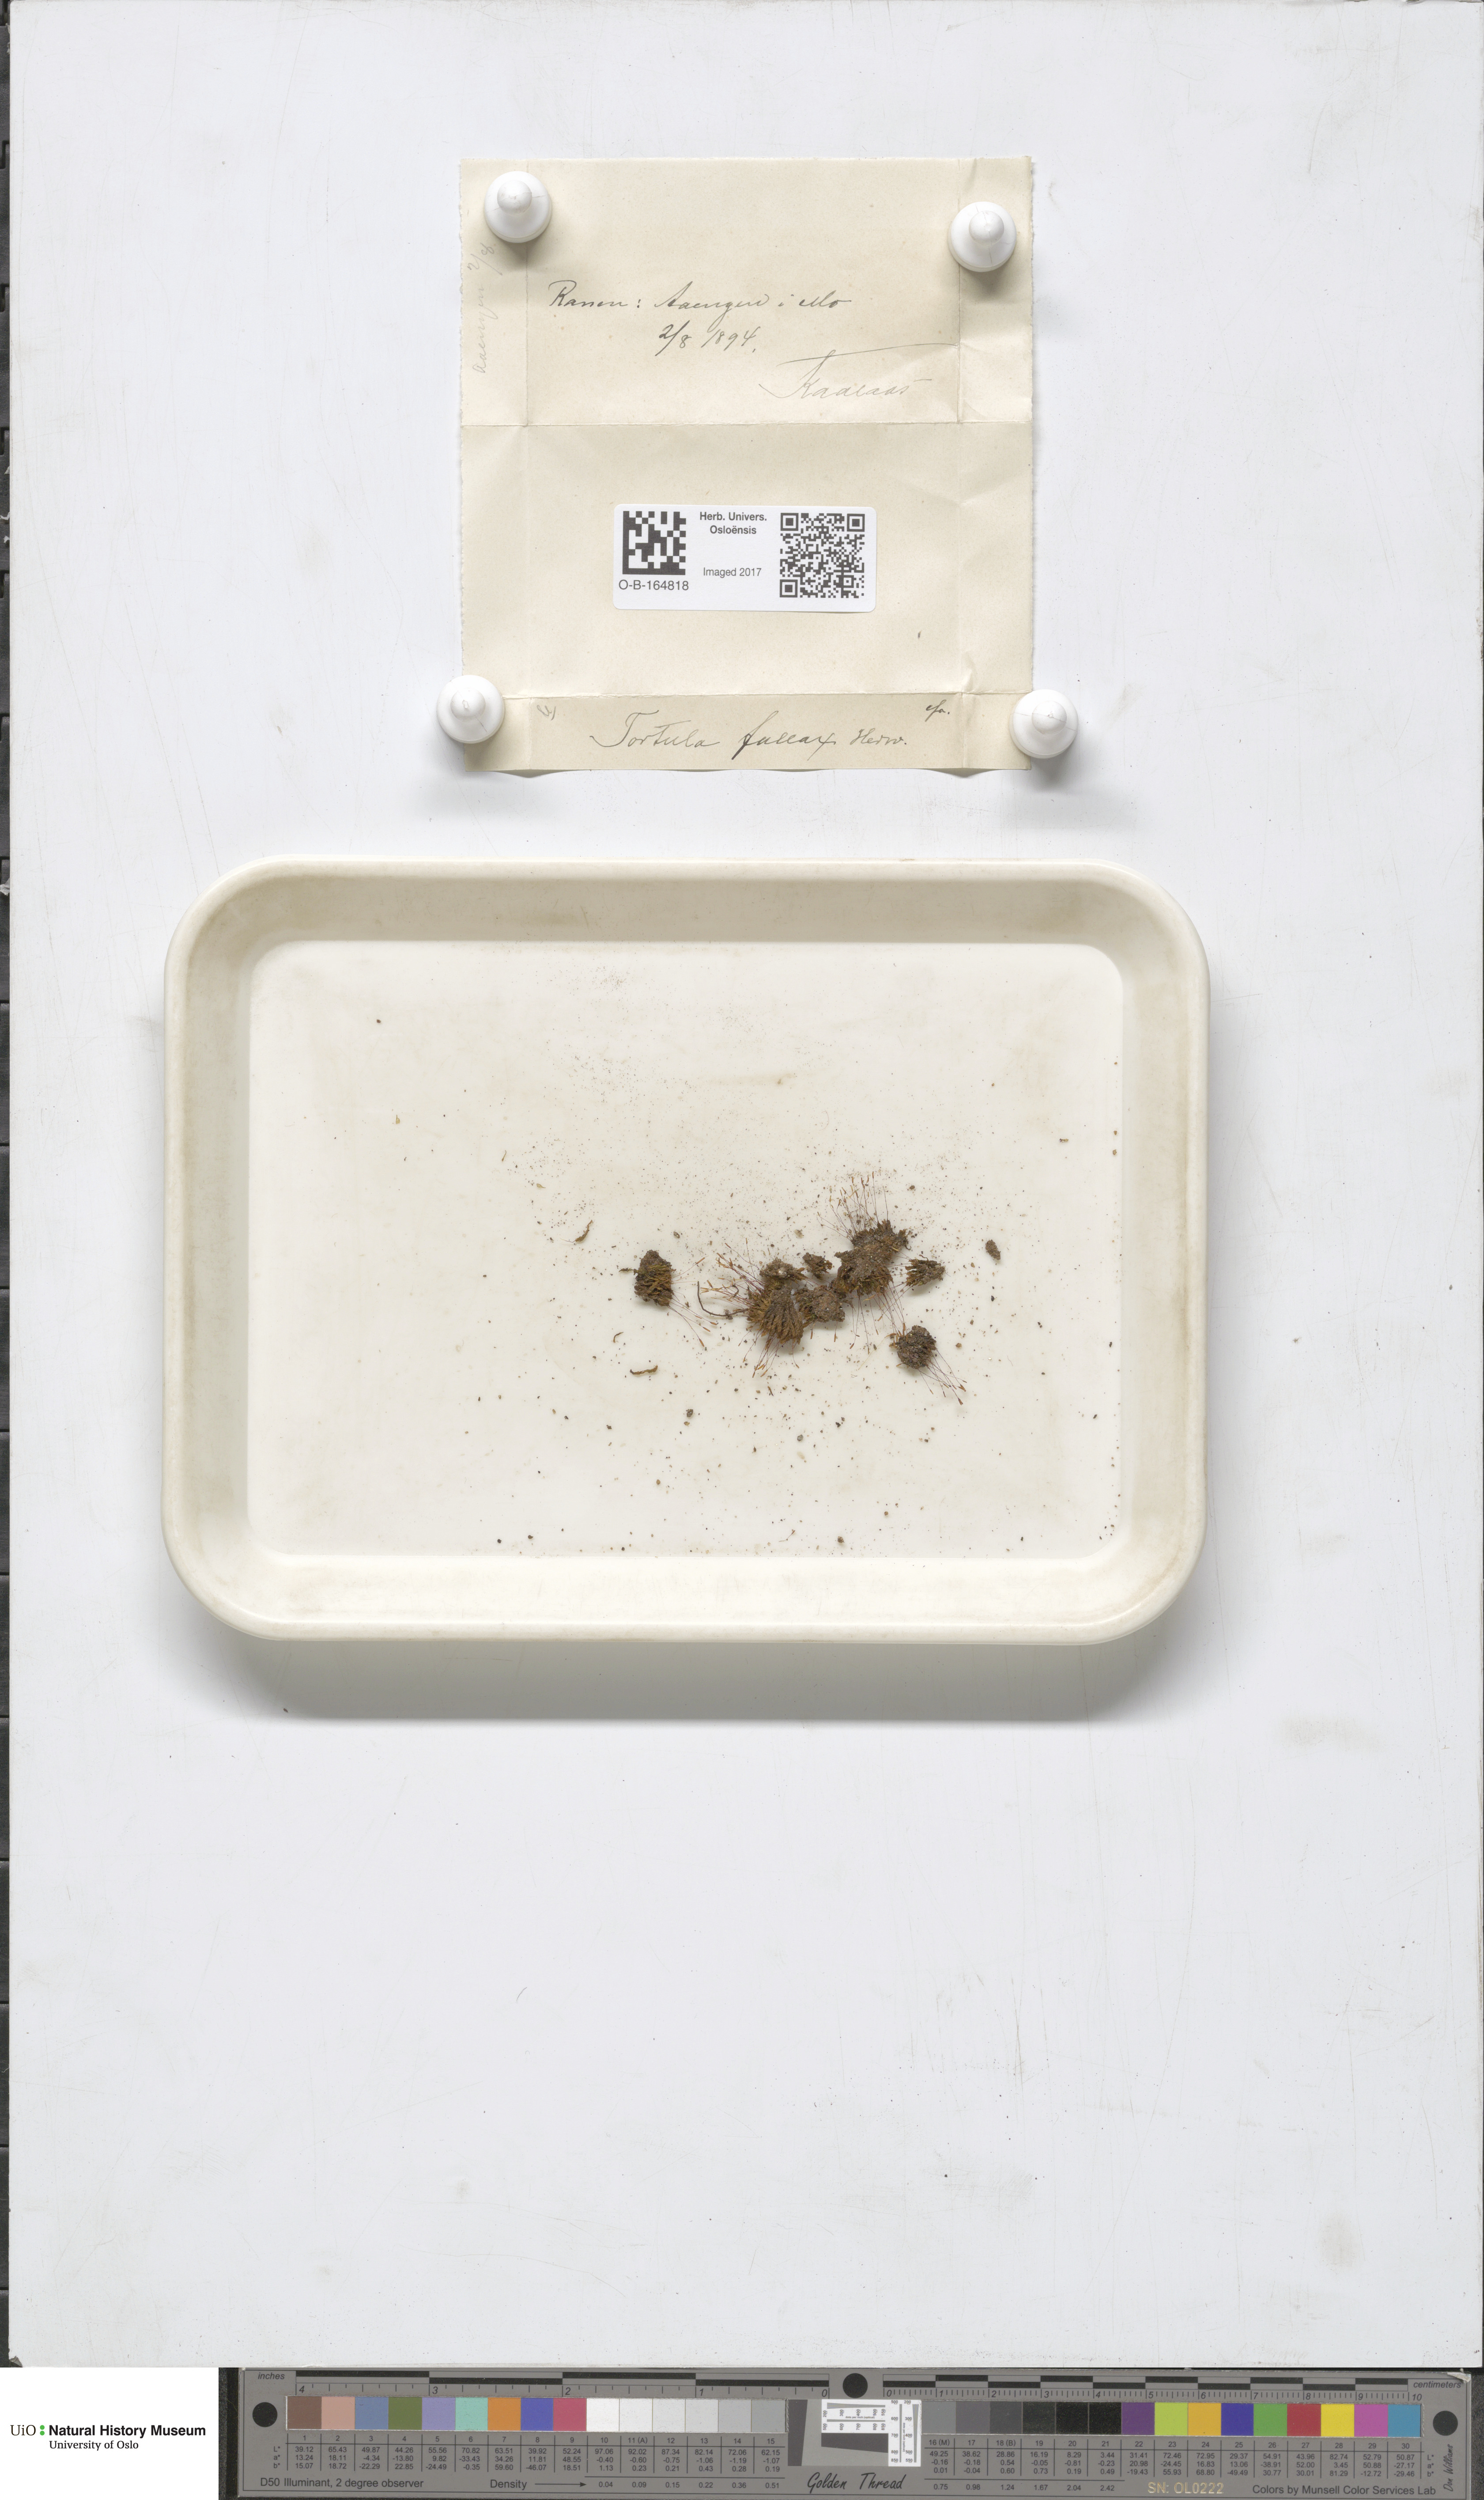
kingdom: Plantae
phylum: Bryophyta
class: Bryopsida
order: Pottiales
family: Pottiaceae
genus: Geheebia
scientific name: Geheebia fallax
